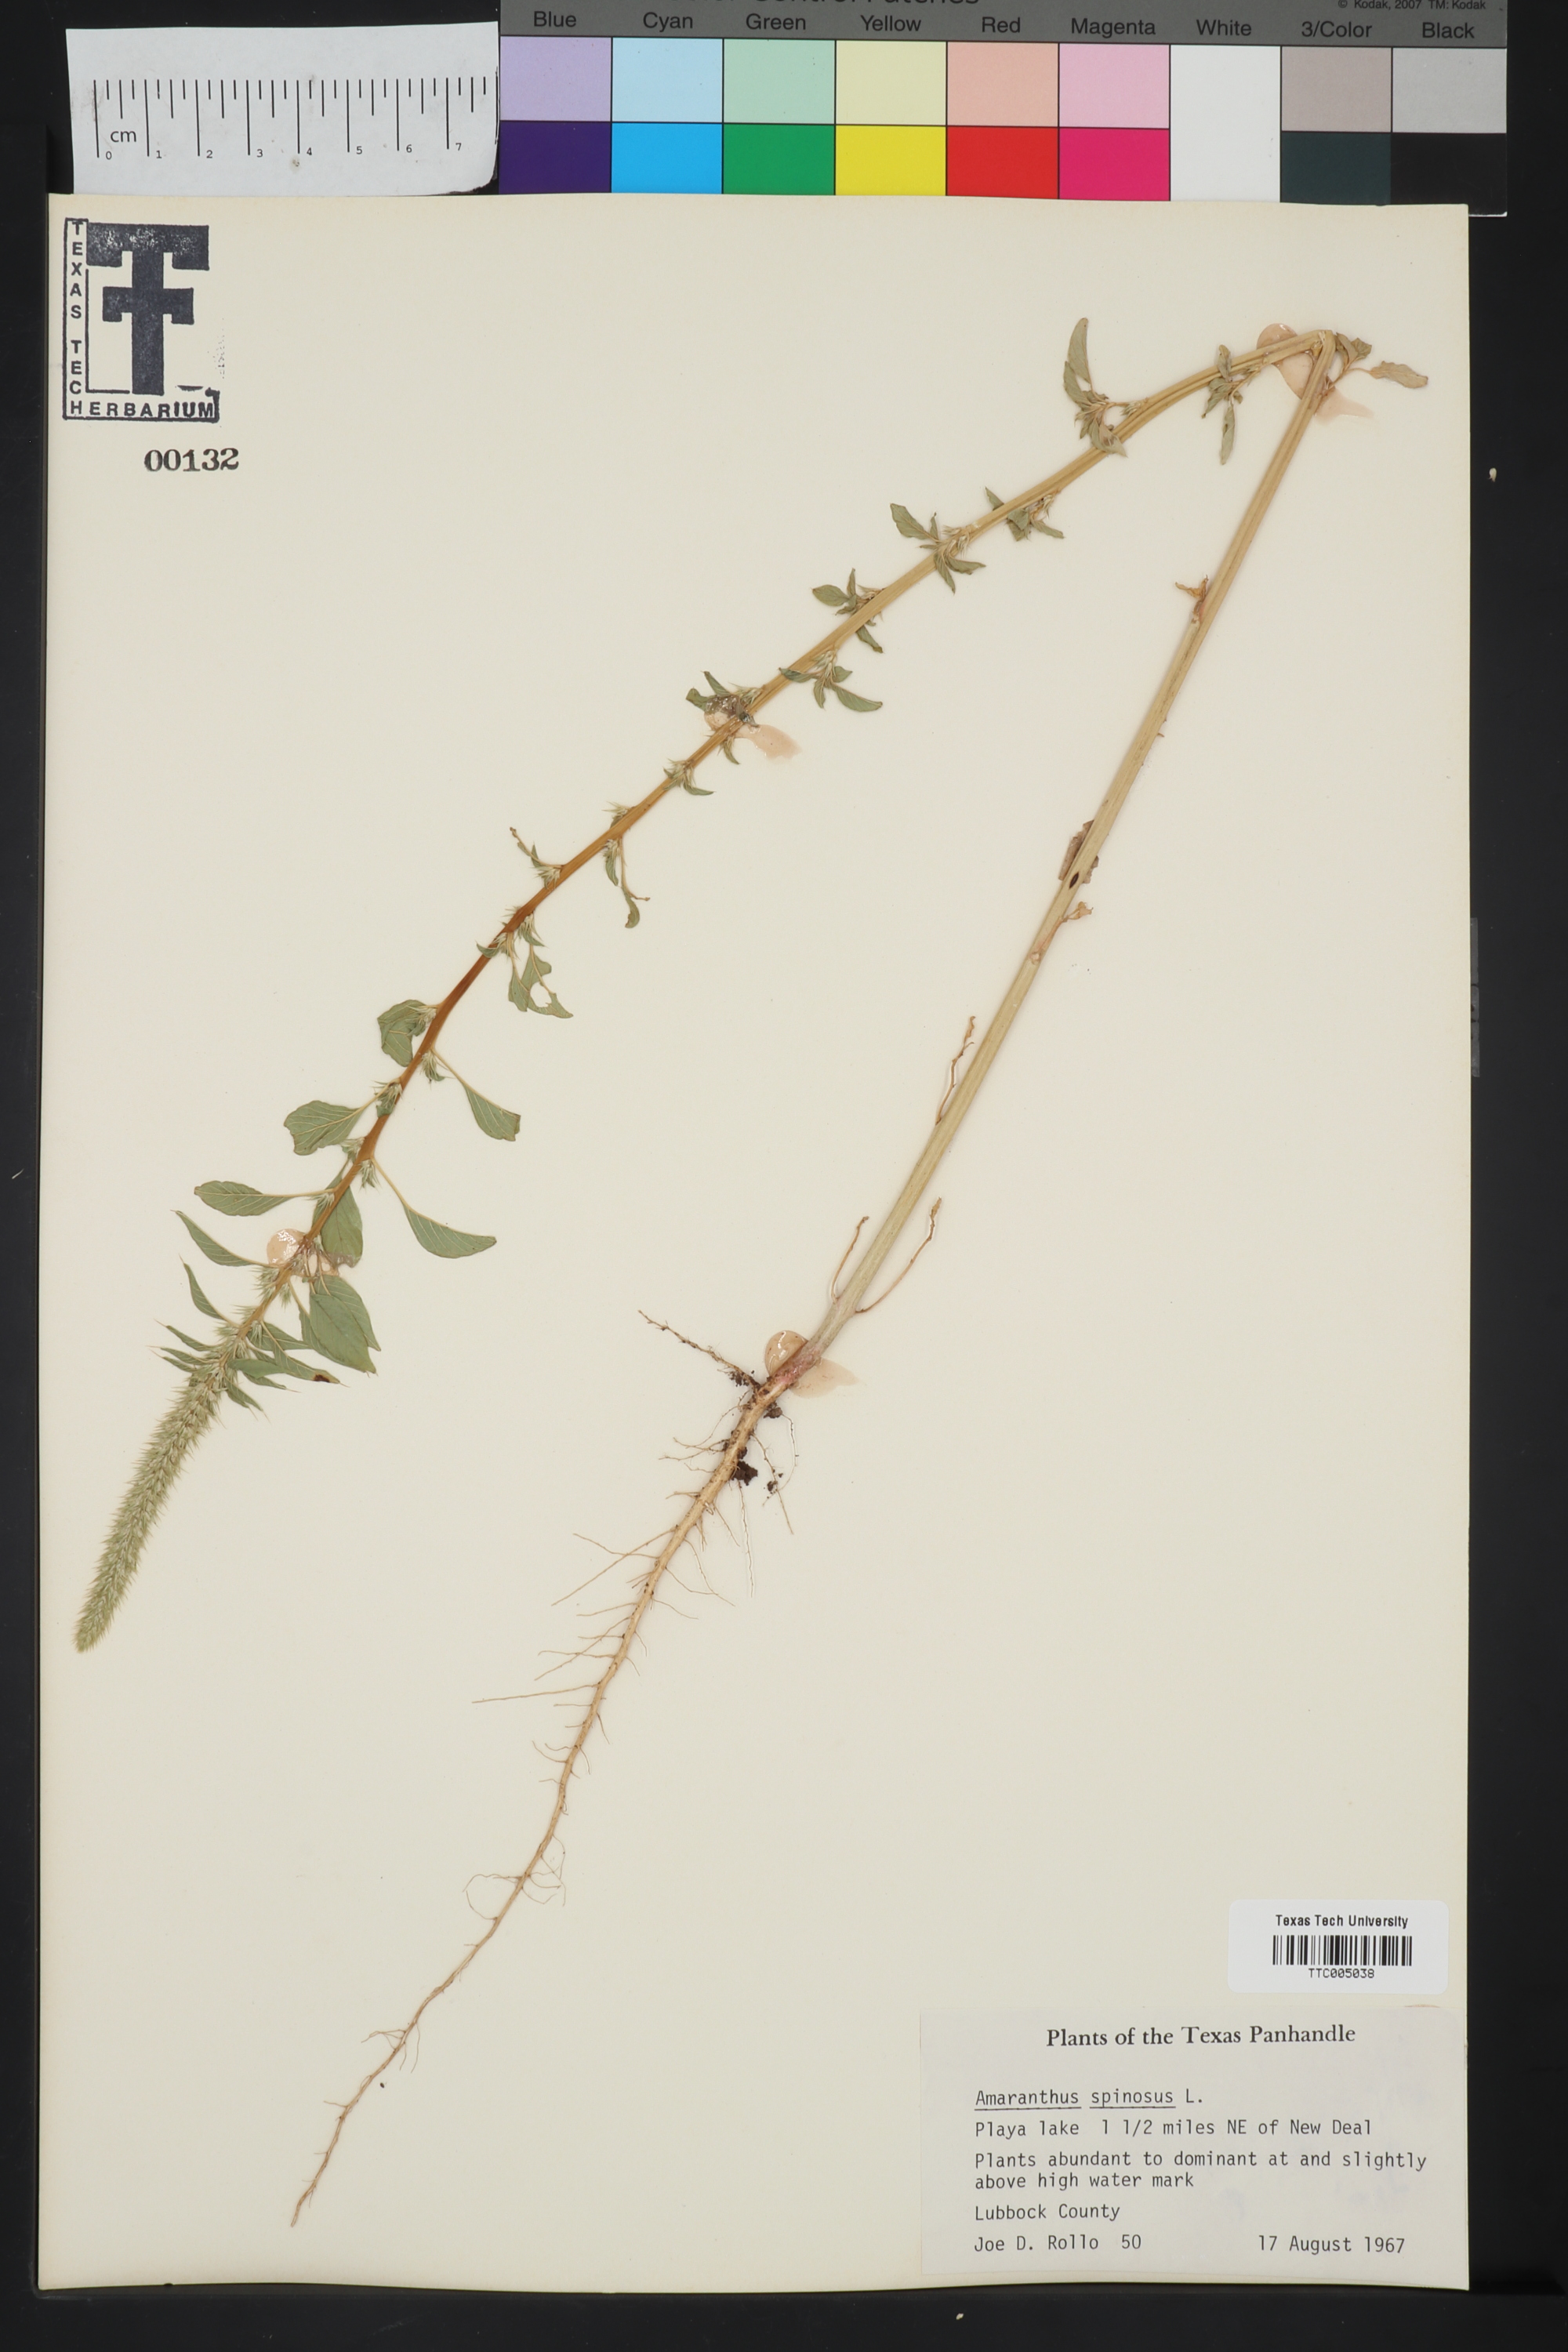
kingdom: Plantae
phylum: Tracheophyta
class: Magnoliopsida
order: Caryophyllales
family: Amaranthaceae
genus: Amaranthus
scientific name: Amaranthus spinosus
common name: Spiny amaranth
